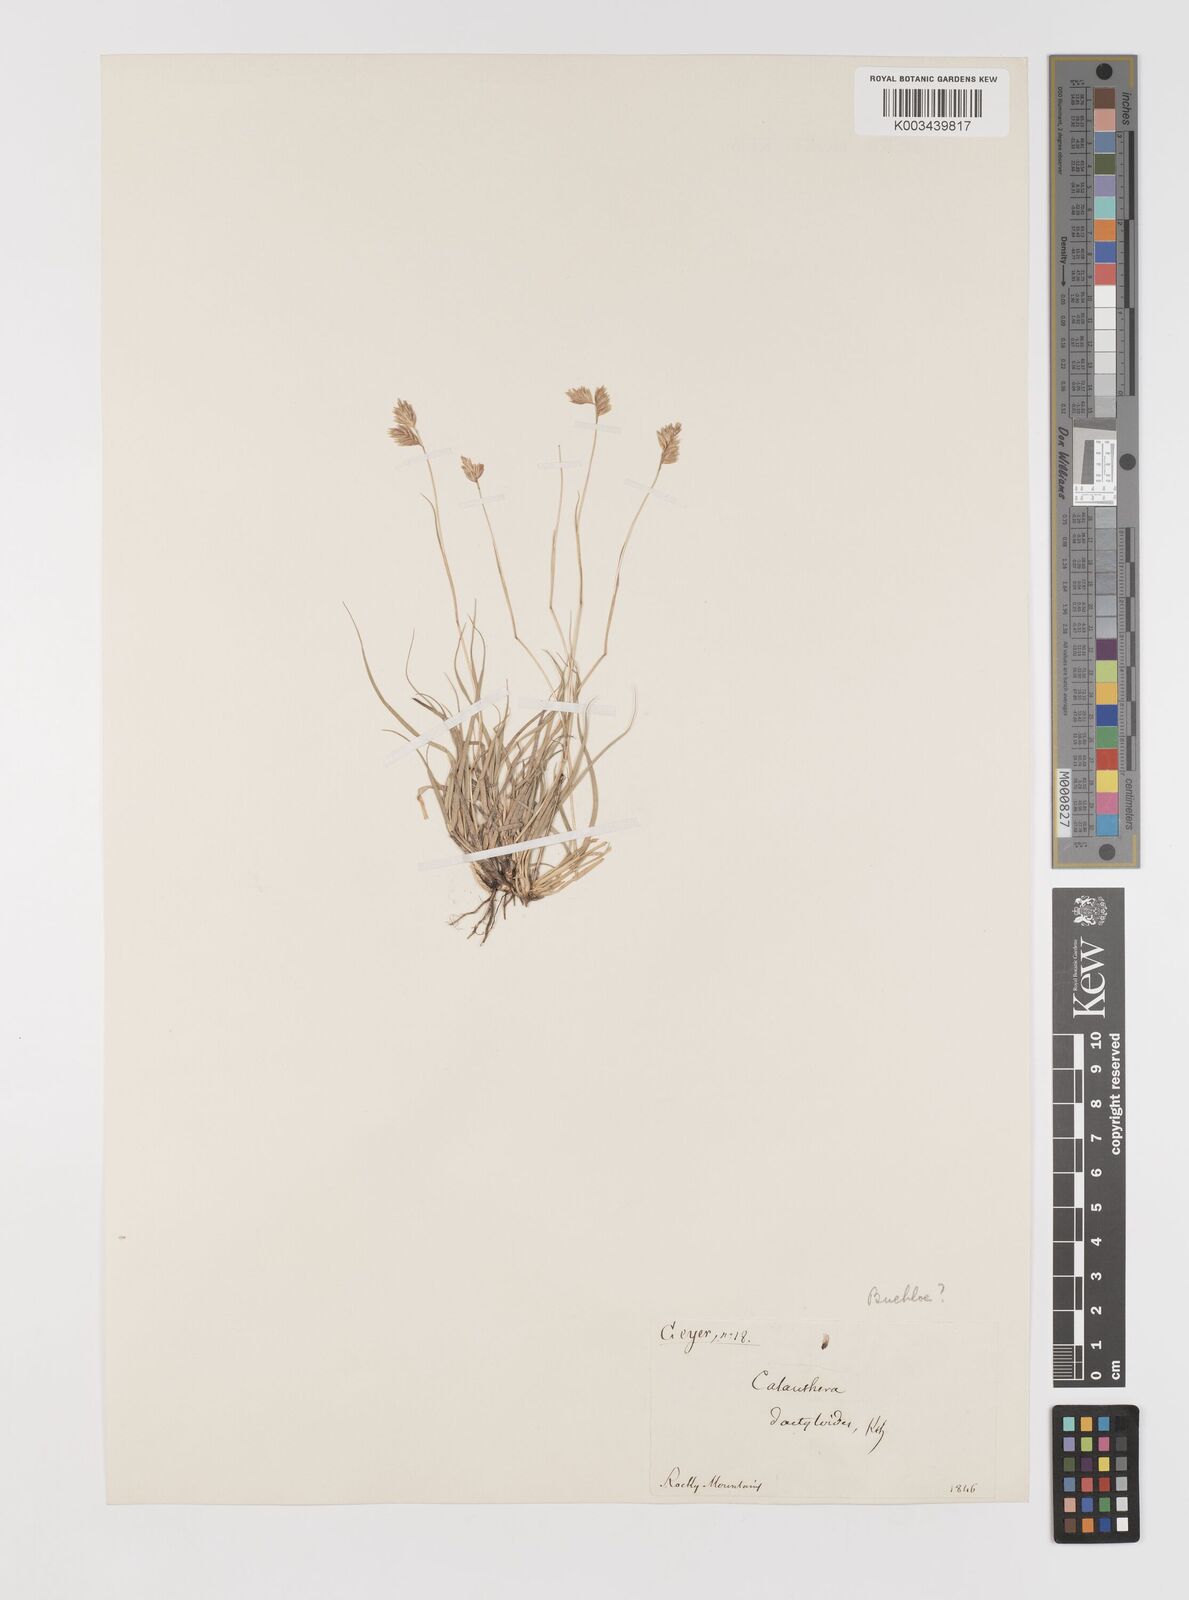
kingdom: Plantae
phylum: Tracheophyta
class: Liliopsida
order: Poales
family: Poaceae
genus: Bouteloua
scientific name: Bouteloua dactyloides
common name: Buffalo grass
